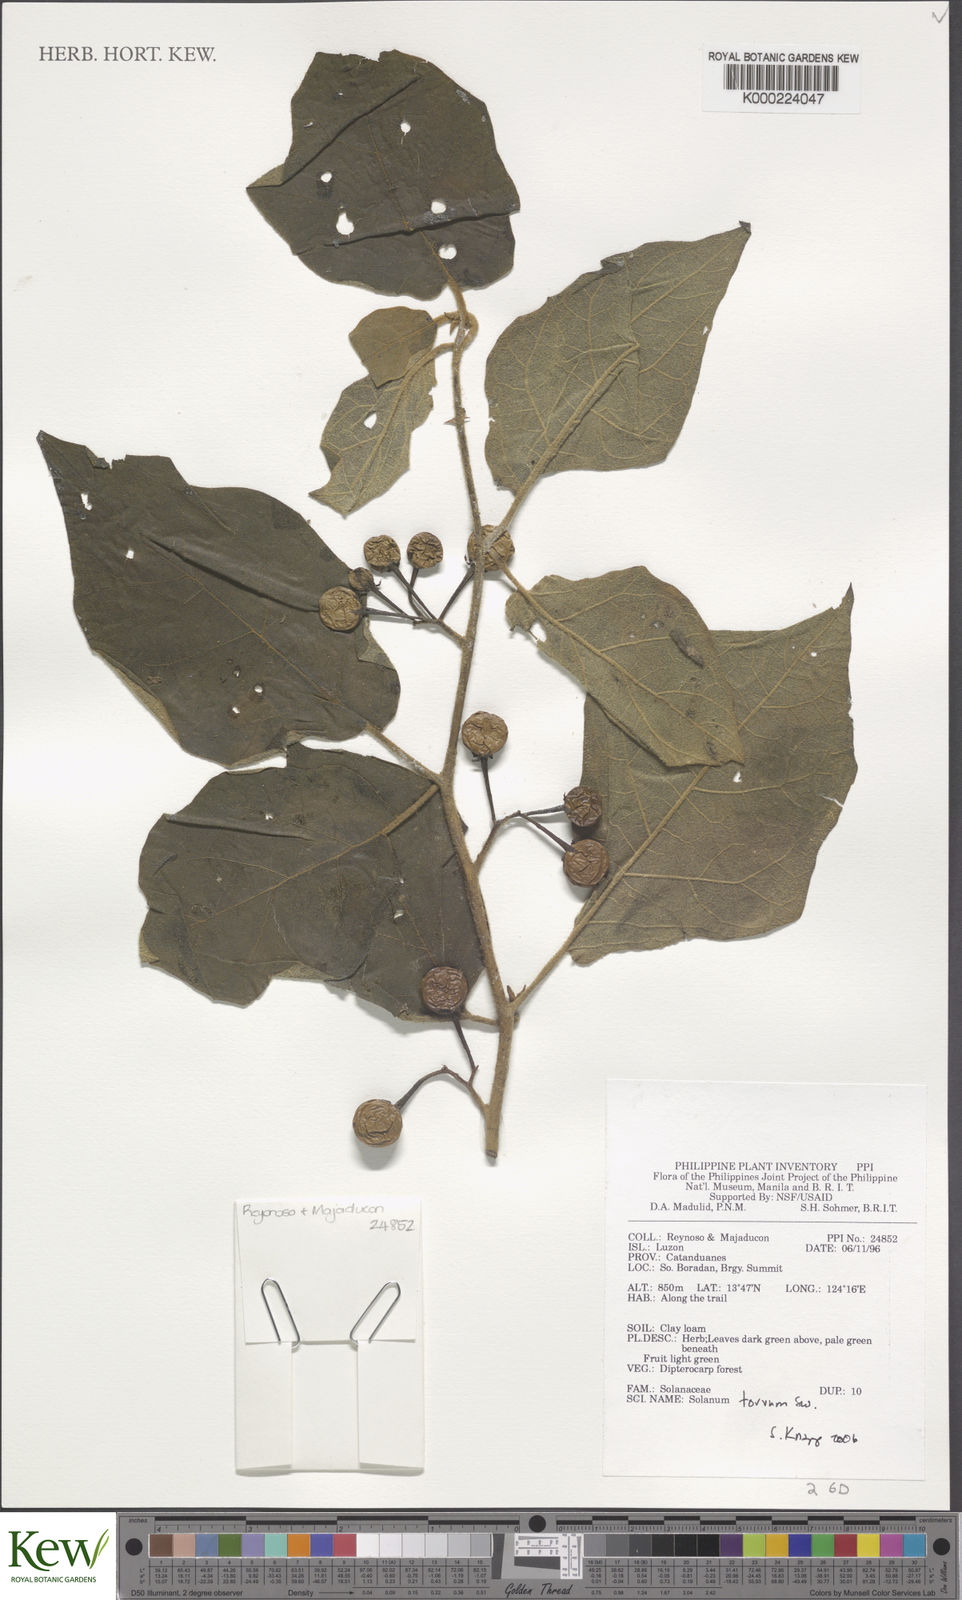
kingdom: Plantae
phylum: Tracheophyta
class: Magnoliopsida
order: Solanales
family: Solanaceae
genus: Solanum
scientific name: Solanum torvum
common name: Turkey berry
